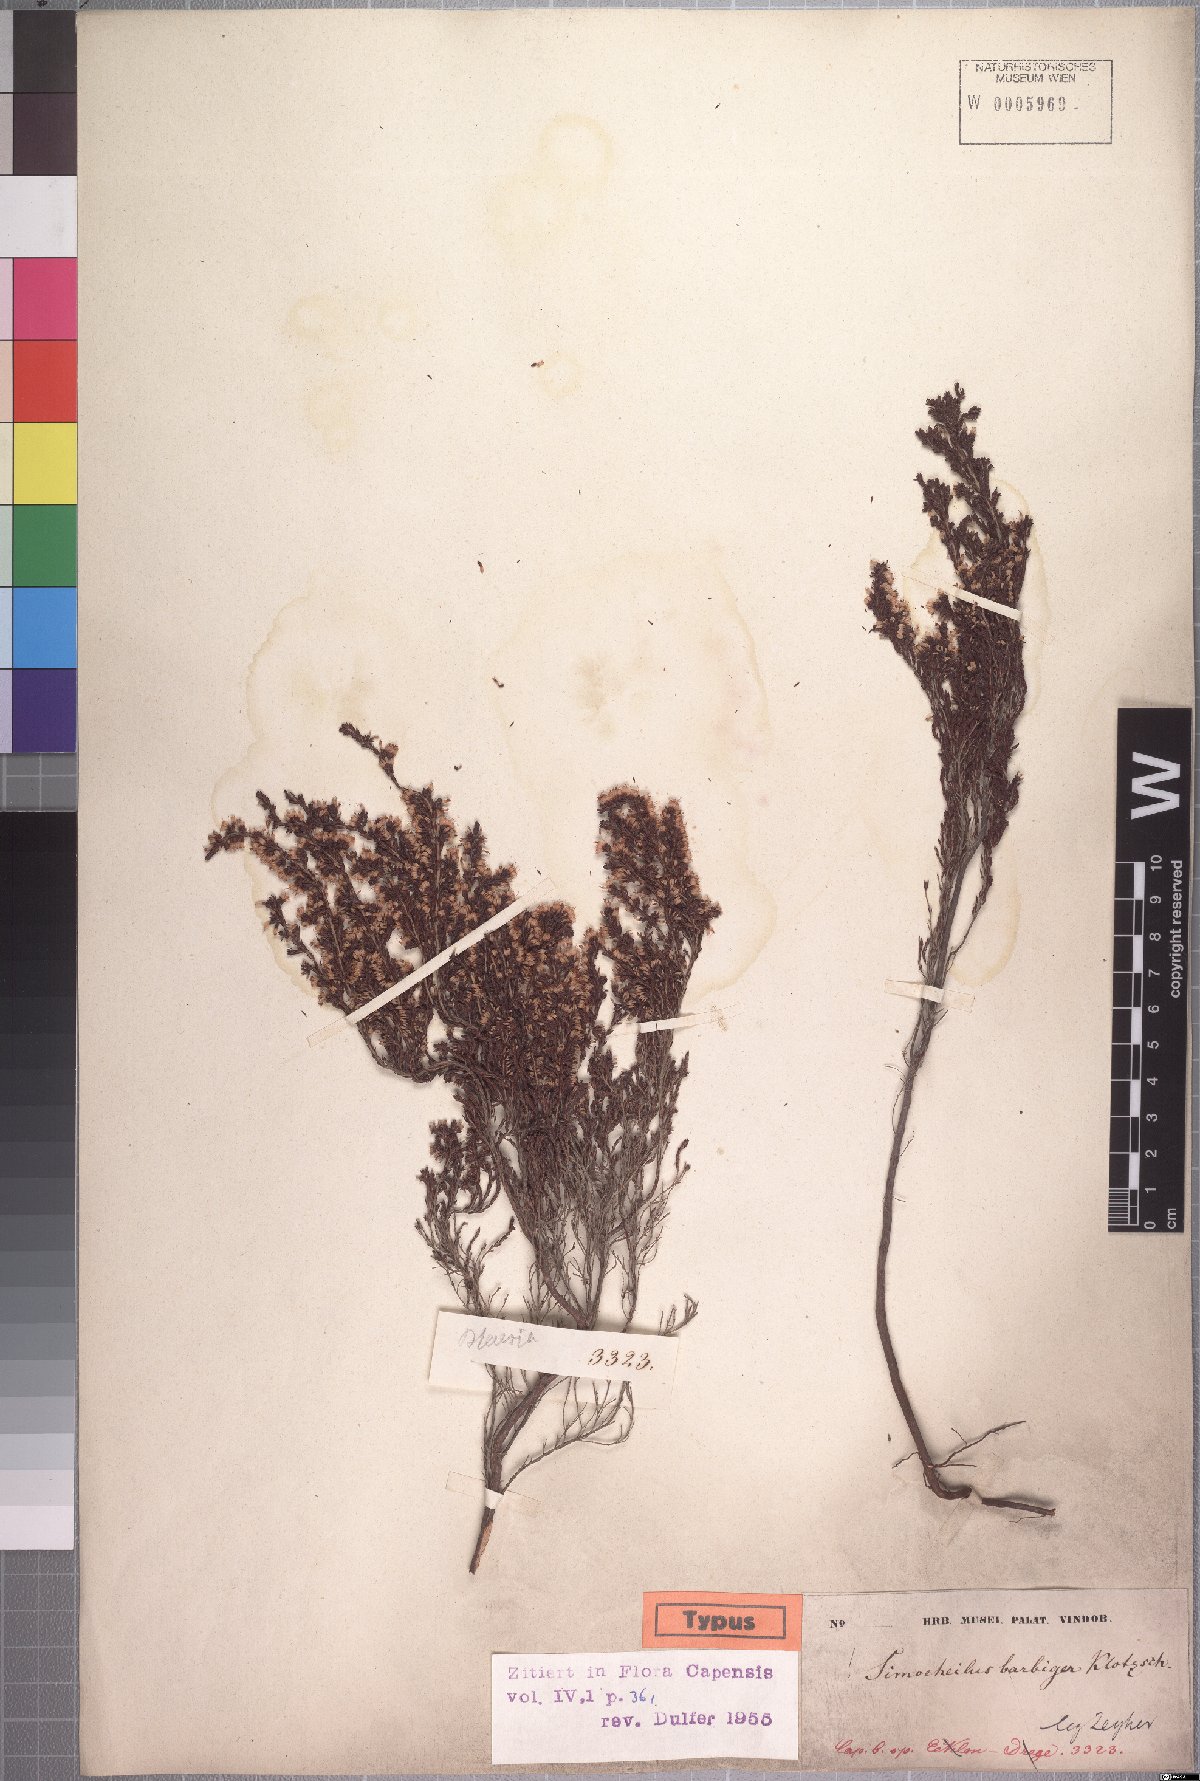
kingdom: Plantae
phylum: Tracheophyta
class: Magnoliopsida
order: Ericales
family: Ericaceae
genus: Erica
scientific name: Erica uberiflora
